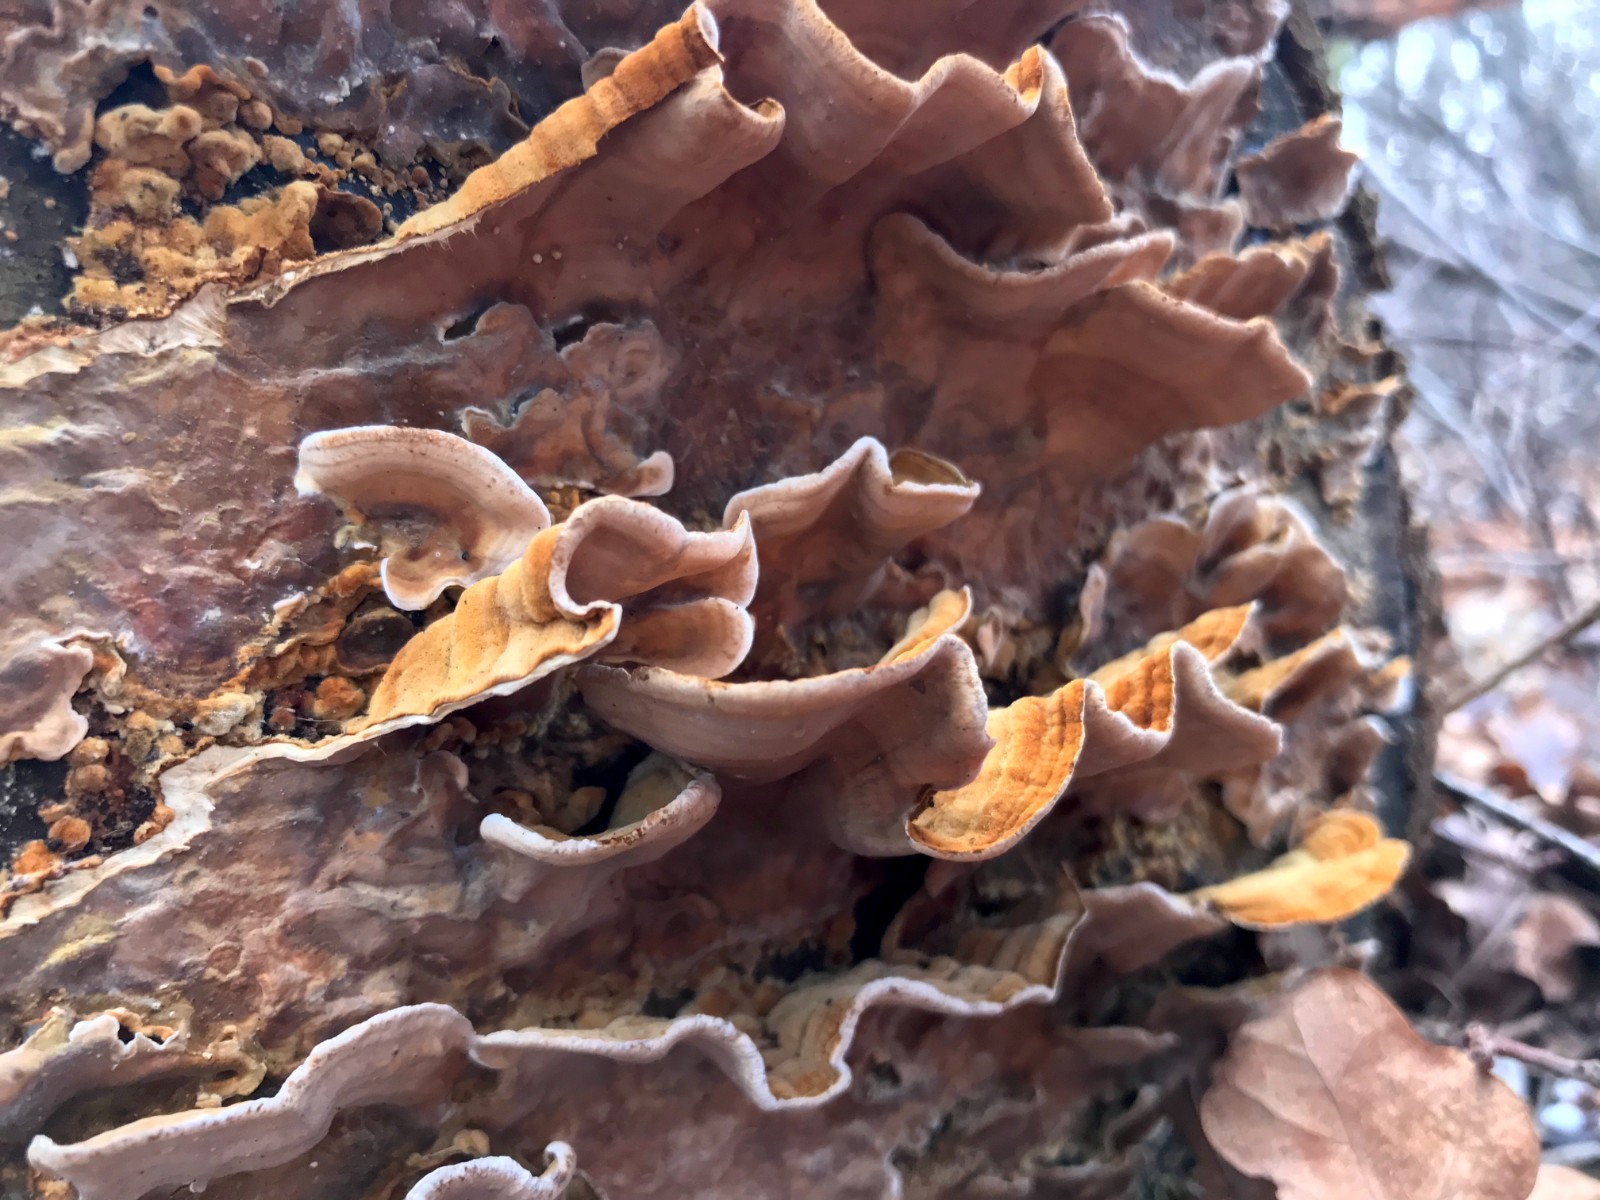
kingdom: Fungi
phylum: Basidiomycota
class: Agaricomycetes
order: Russulales
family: Stereaceae
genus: Stereum
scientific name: Stereum subtomentosum
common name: smuk lædersvamp
